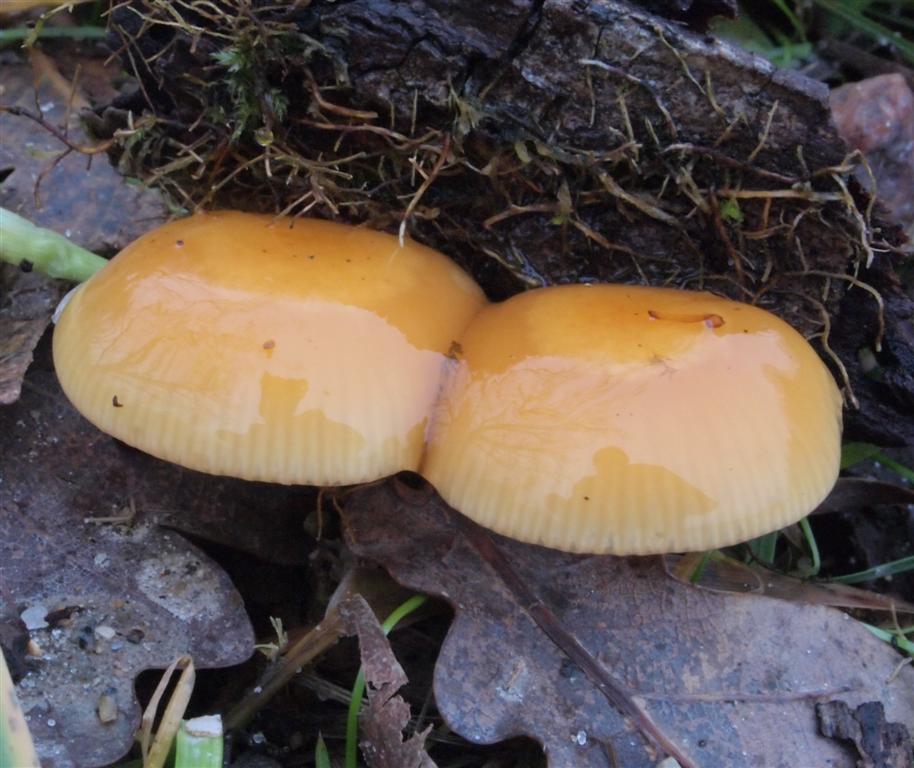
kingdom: Fungi
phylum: Basidiomycota
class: Agaricomycetes
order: Agaricales
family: Physalacriaceae
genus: Flammulina
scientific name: Flammulina velutipes
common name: gul fløjlsfod
